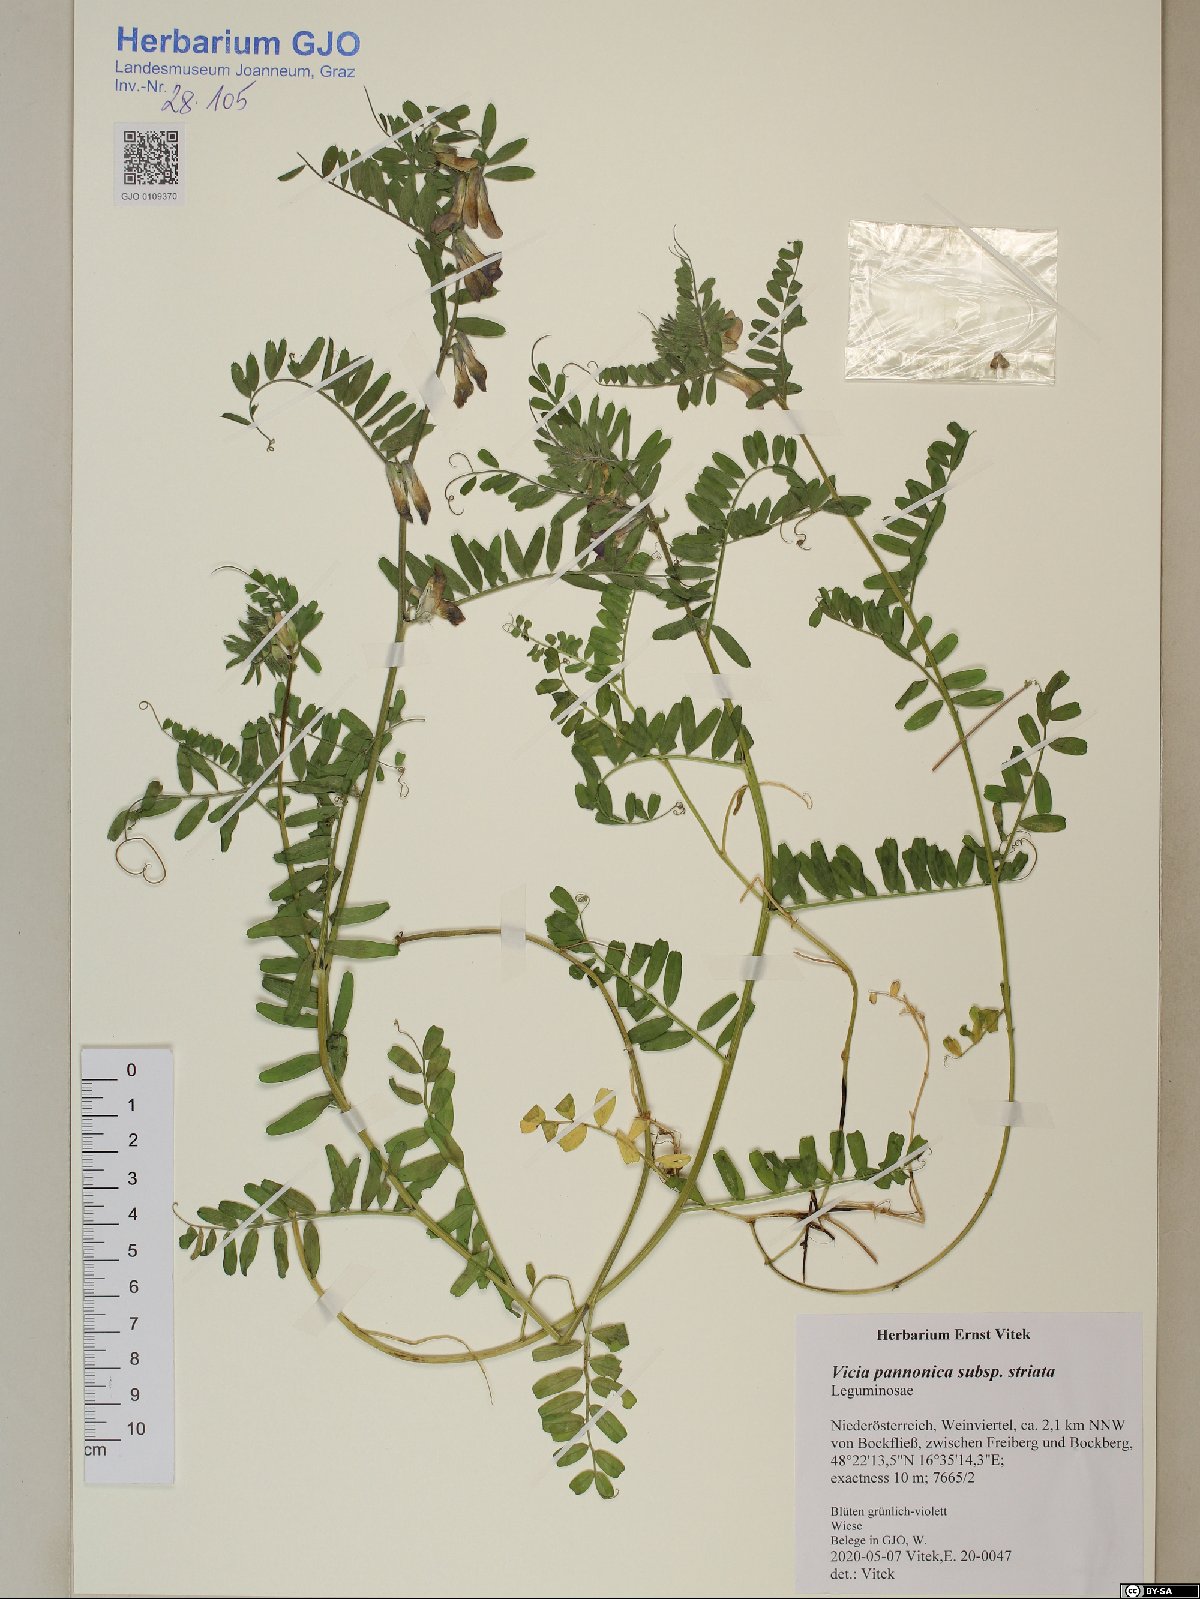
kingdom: Plantae
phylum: Tracheophyta
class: Magnoliopsida
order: Fabales
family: Fabaceae
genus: Vicia
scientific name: Vicia pannonica
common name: Hungarian vetch
